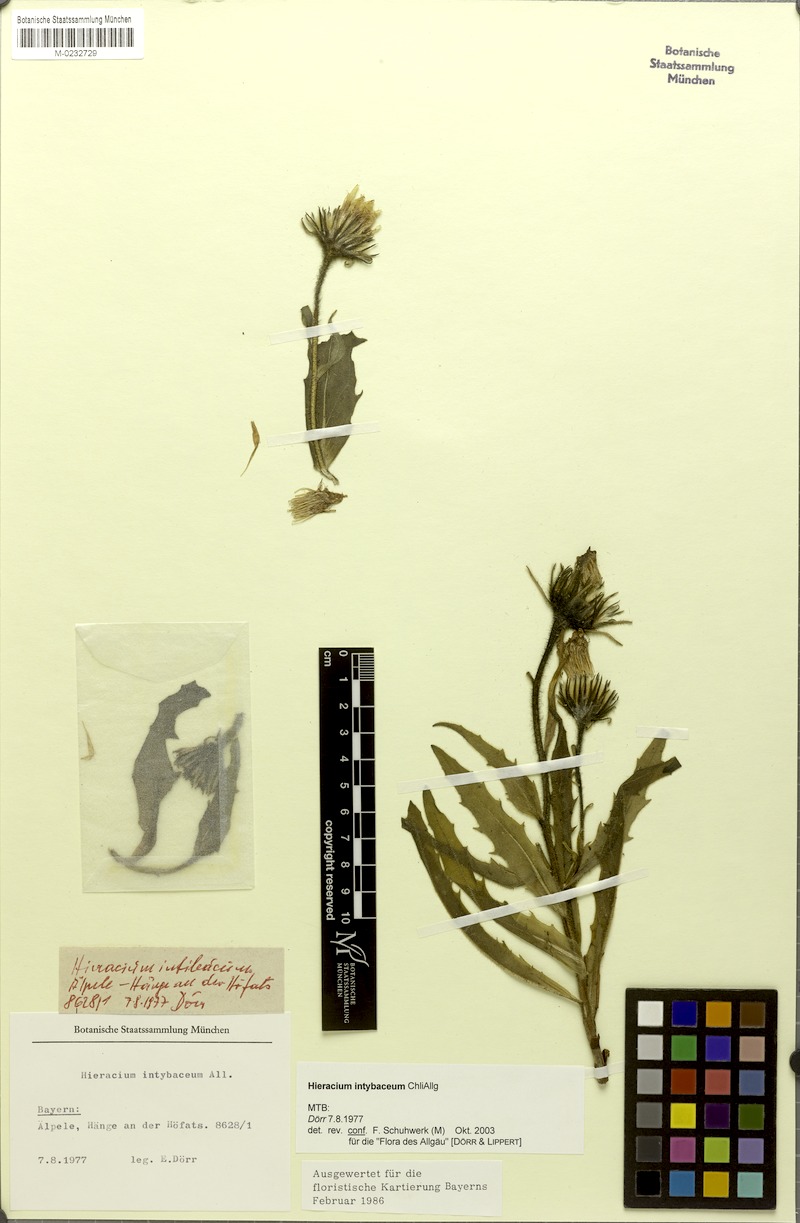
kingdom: Plantae
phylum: Tracheophyta
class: Magnoliopsida
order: Asterales
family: Asteraceae
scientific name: Asteraceae
